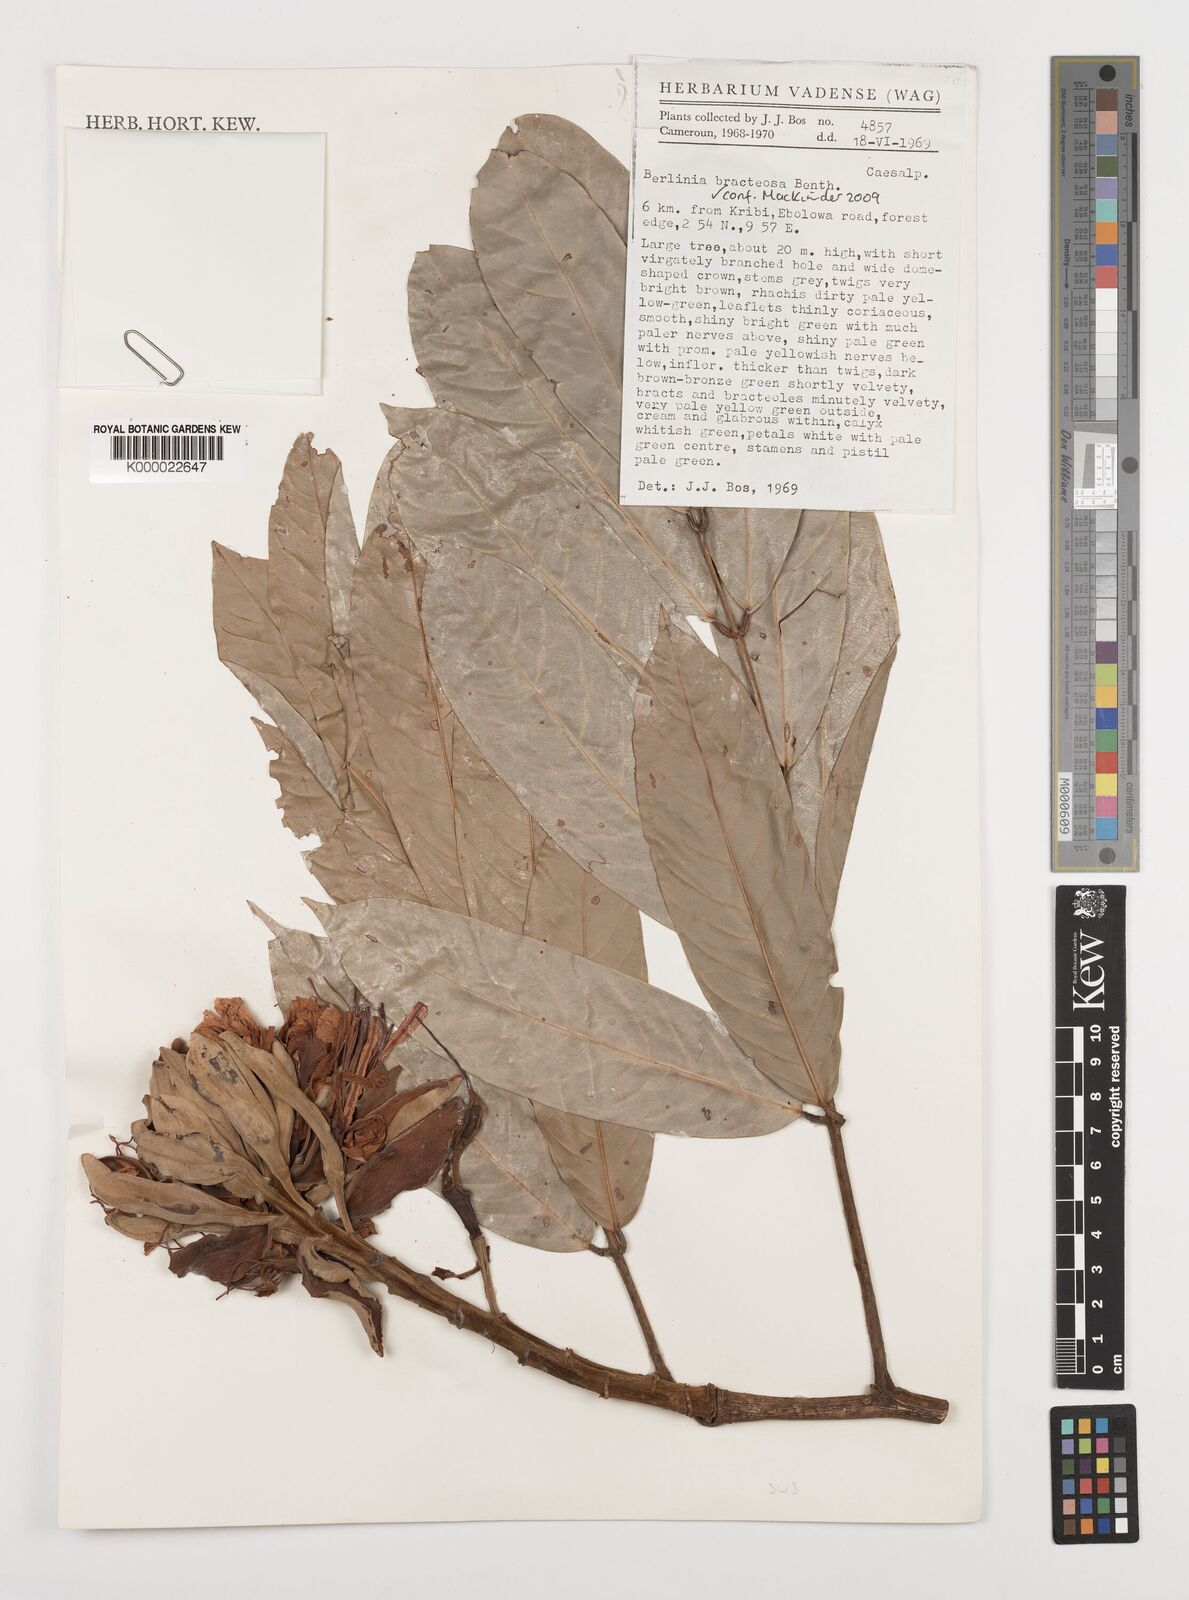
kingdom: Plantae
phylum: Tracheophyta
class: Magnoliopsida
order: Fabales
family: Fabaceae
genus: Berlinia
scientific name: Berlinia bracteosa
